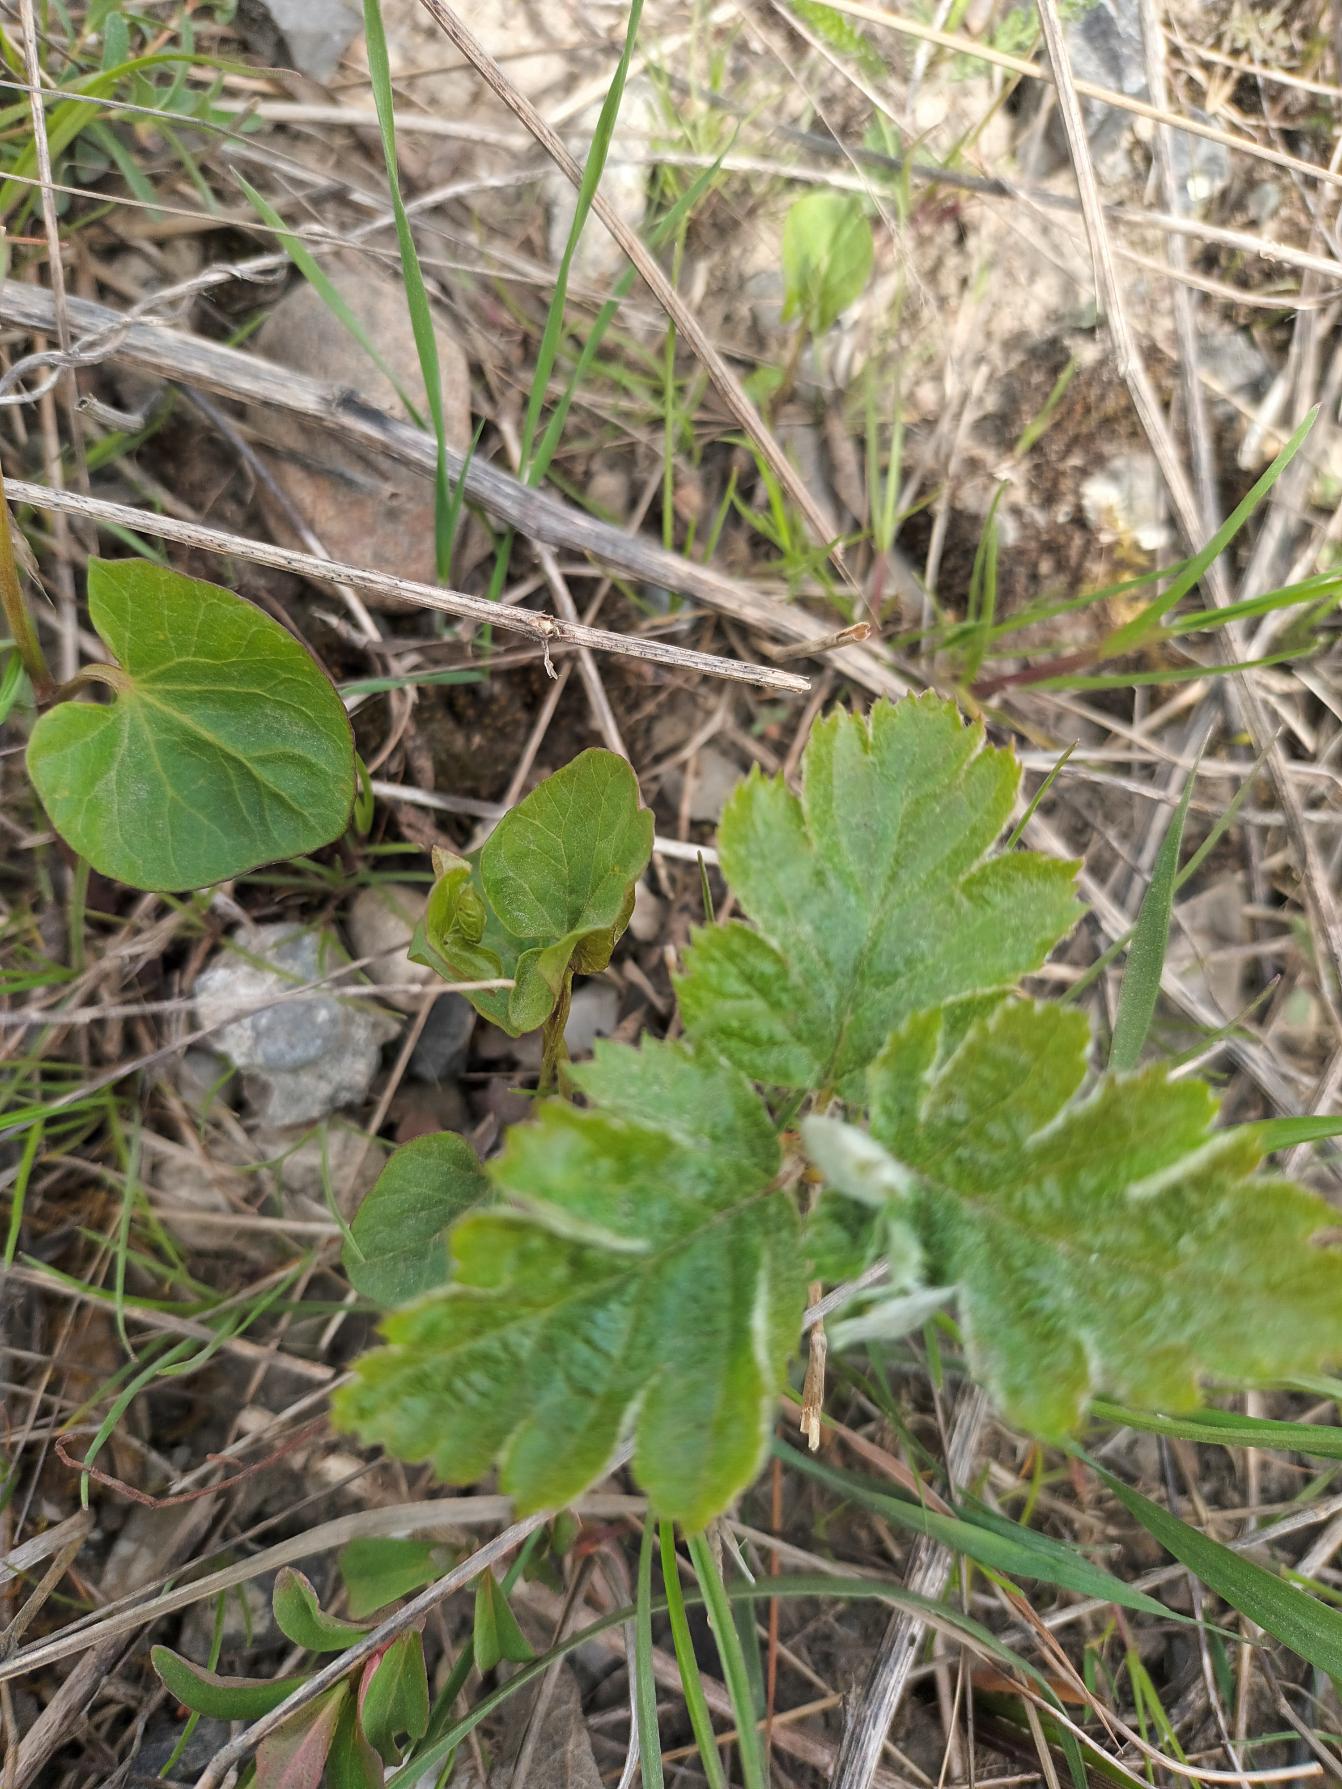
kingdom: Plantae
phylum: Tracheophyta
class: Magnoliopsida
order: Rosales
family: Rosaceae
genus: Scandosorbus
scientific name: Scandosorbus intermedia
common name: Selje-røn
